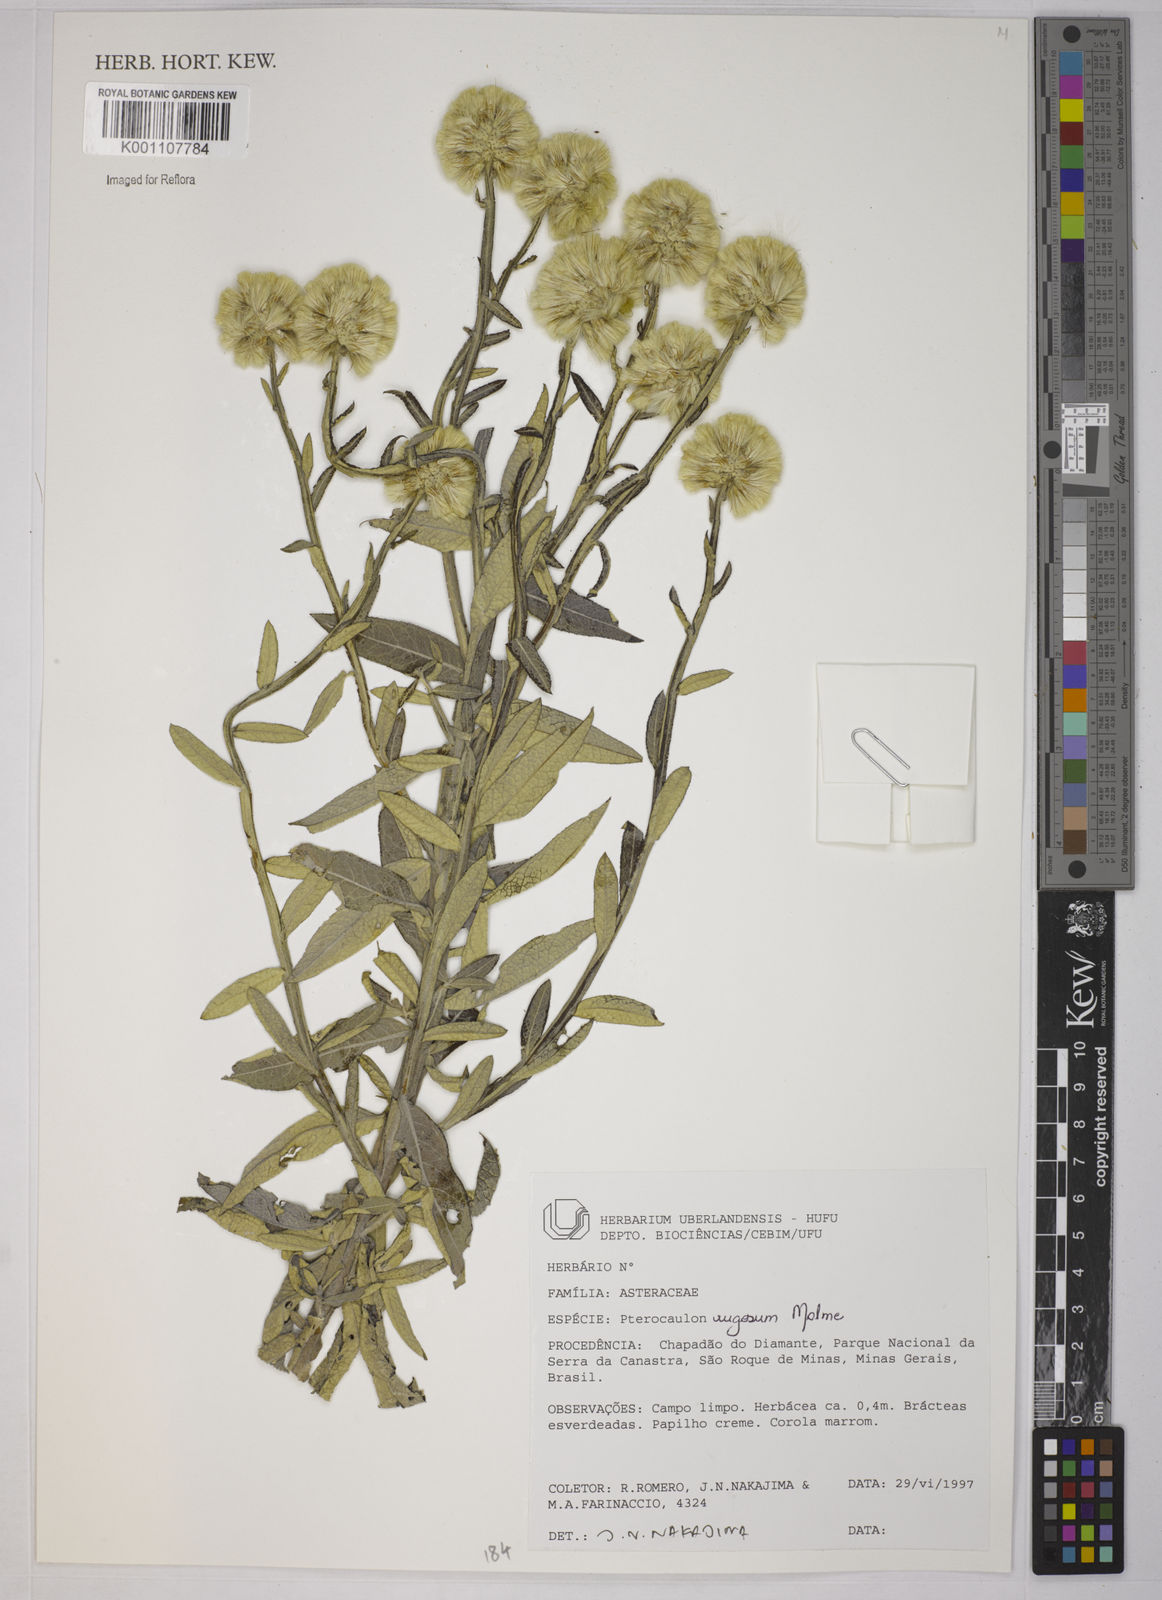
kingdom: Plantae
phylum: Tracheophyta
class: Magnoliopsida
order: Asterales
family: Asteraceae
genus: Pterocaulon
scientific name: Pterocaulon angustifolium
